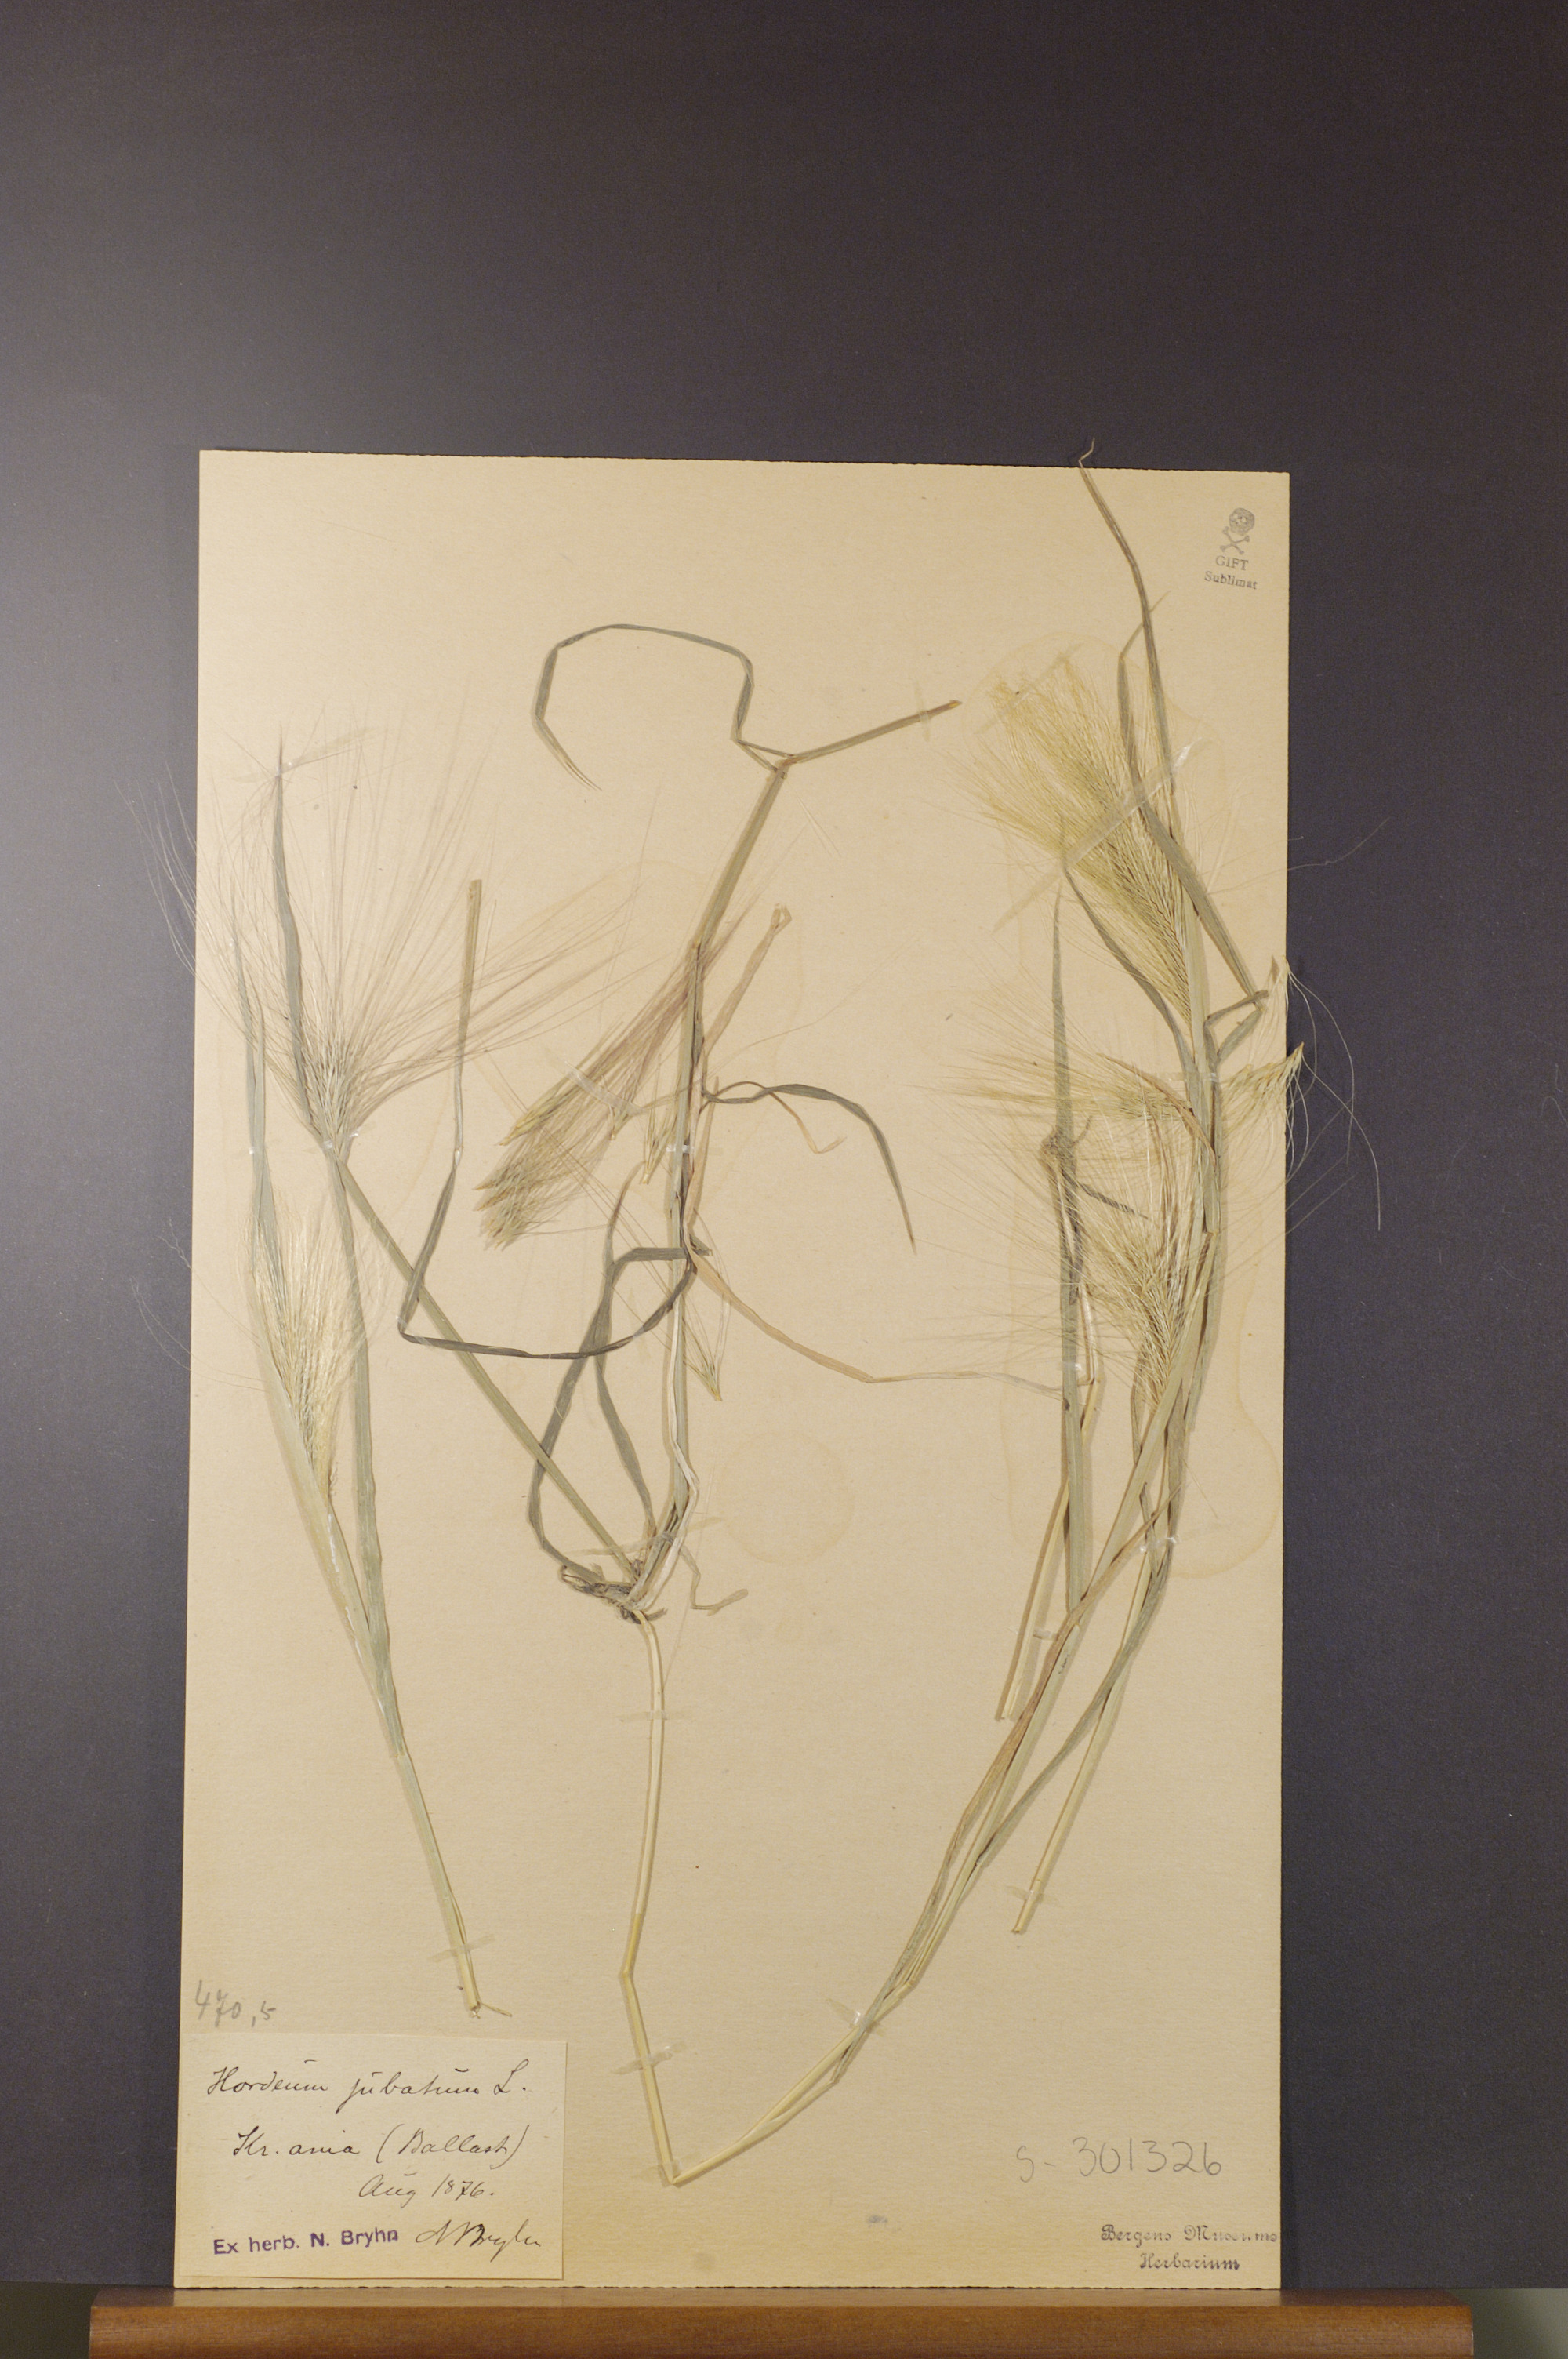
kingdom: Plantae
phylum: Tracheophyta
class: Liliopsida
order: Poales
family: Poaceae
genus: Hordeum
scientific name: Hordeum jubatum
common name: Foxtail barley
